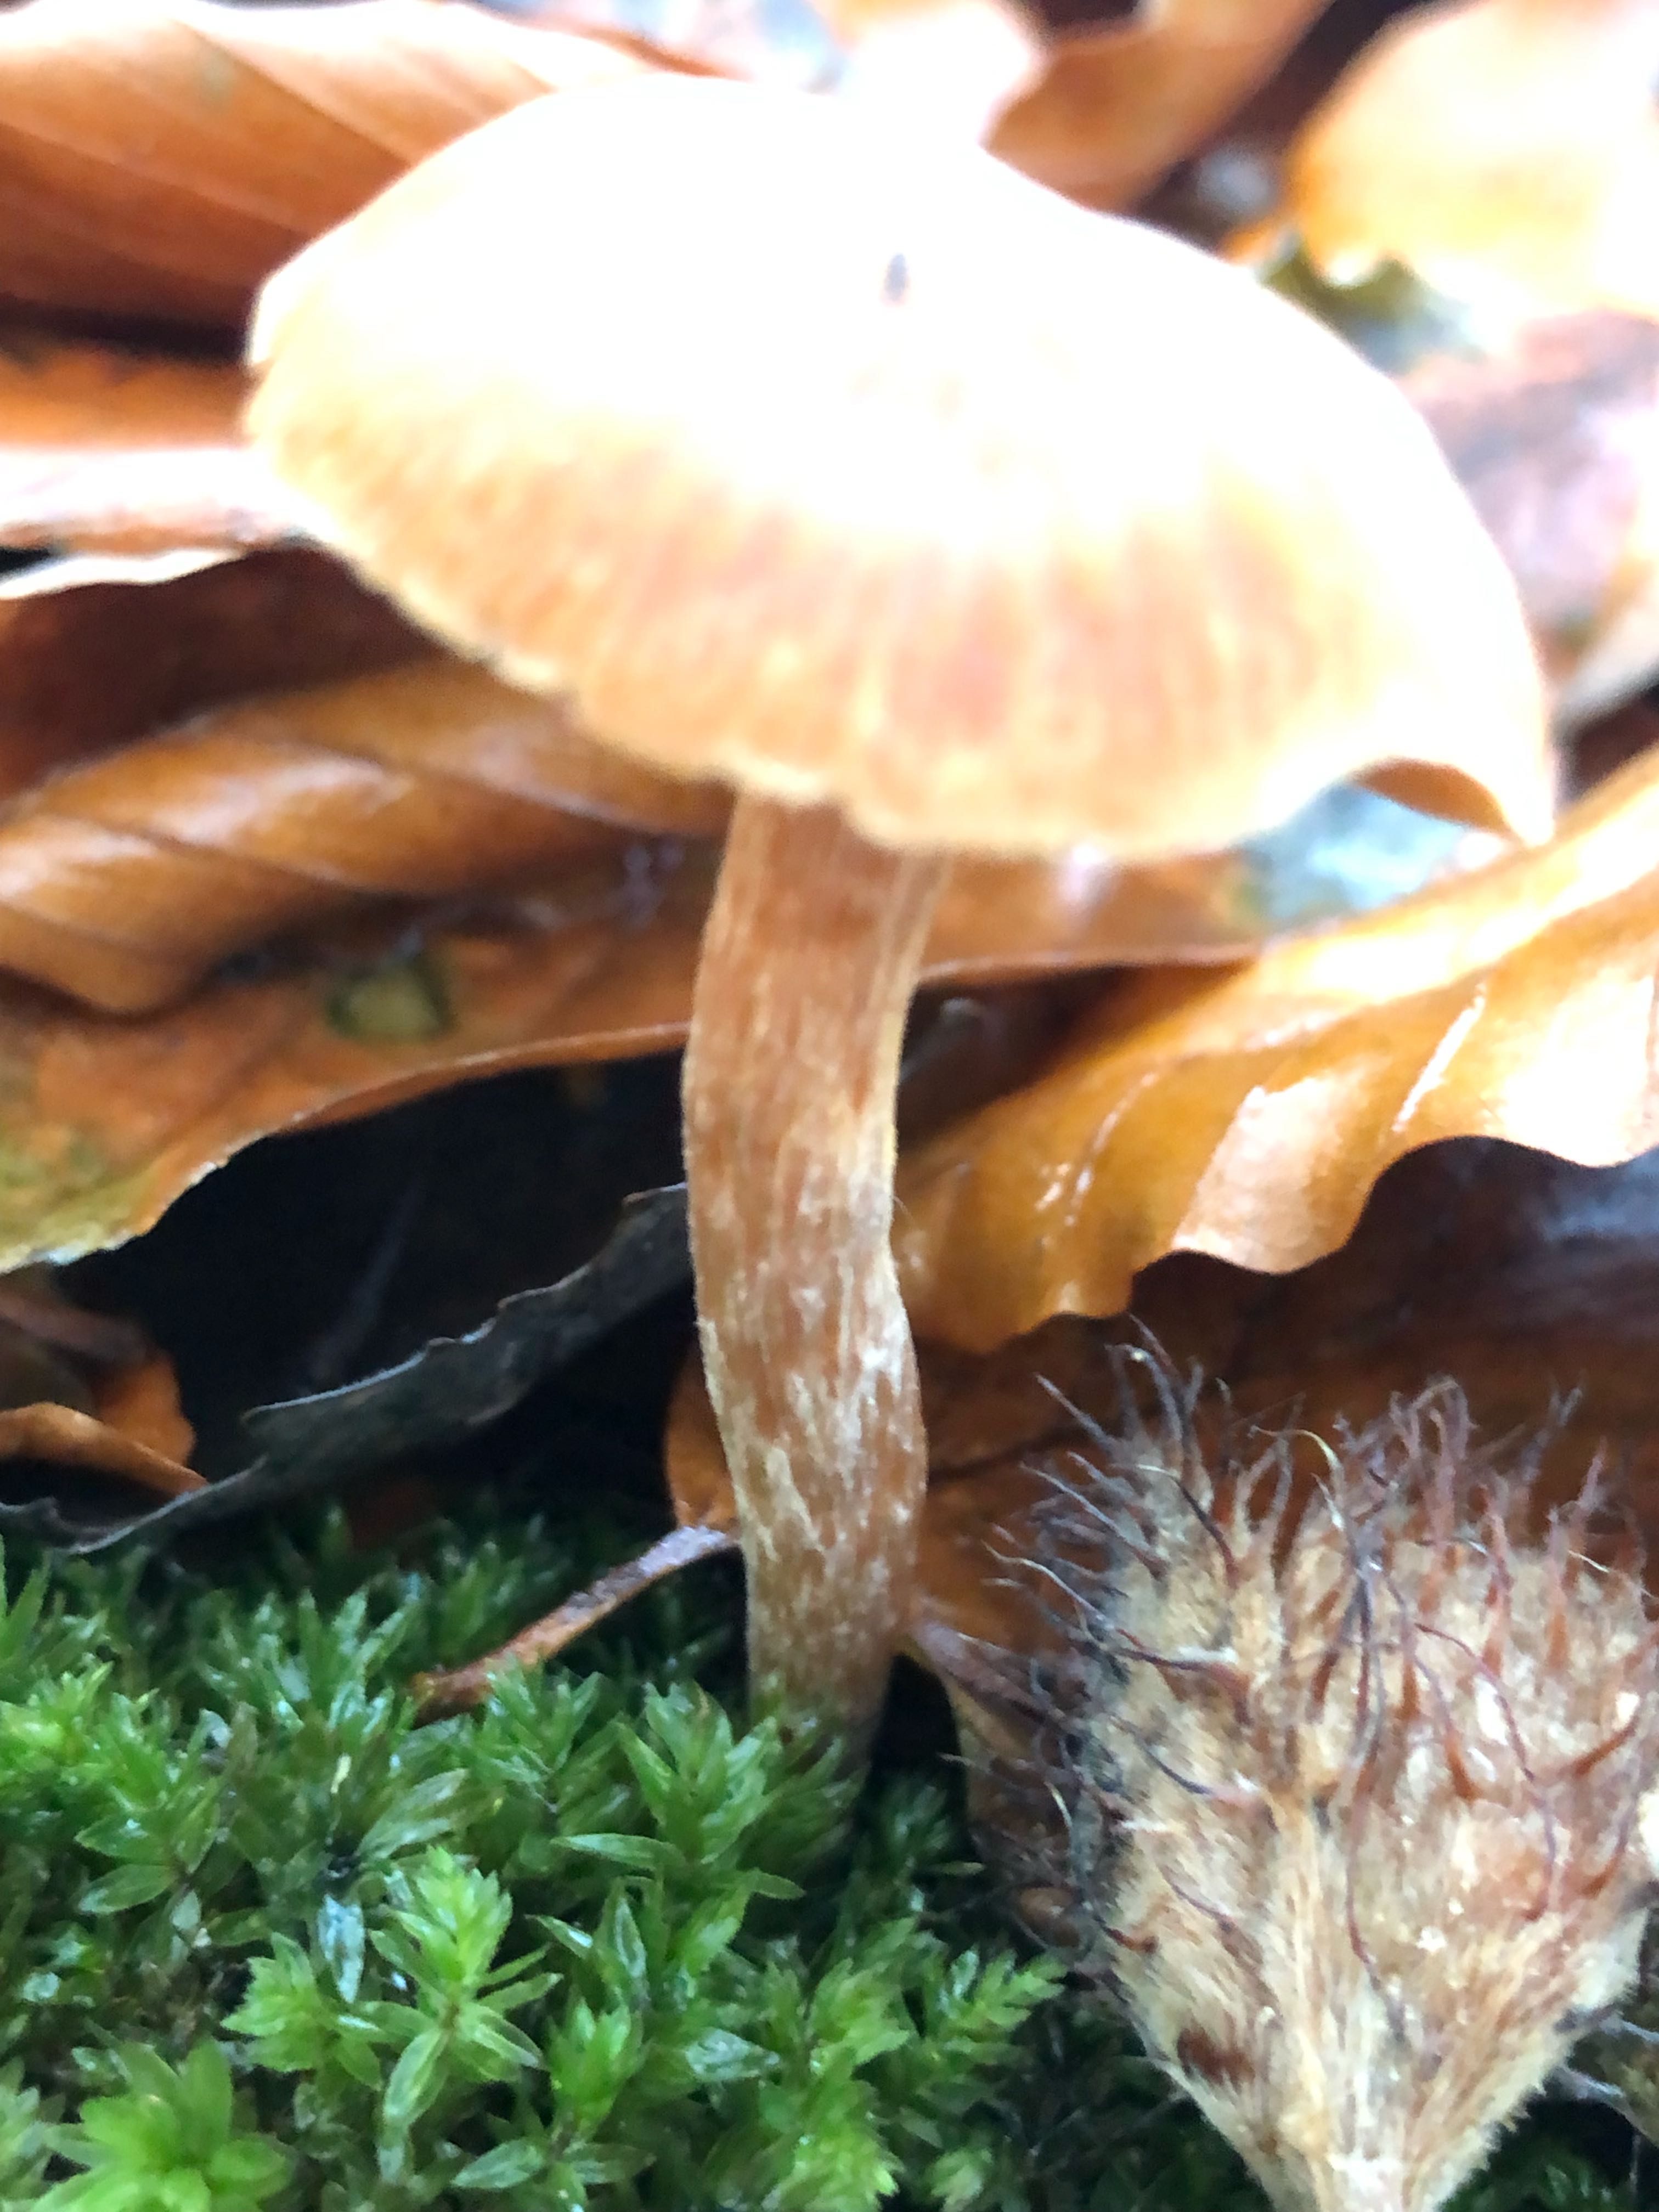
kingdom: Fungi
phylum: Basidiomycota
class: Agaricomycetes
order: Agaricales
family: Cortinariaceae
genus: Cortinarius
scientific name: Cortinarius
